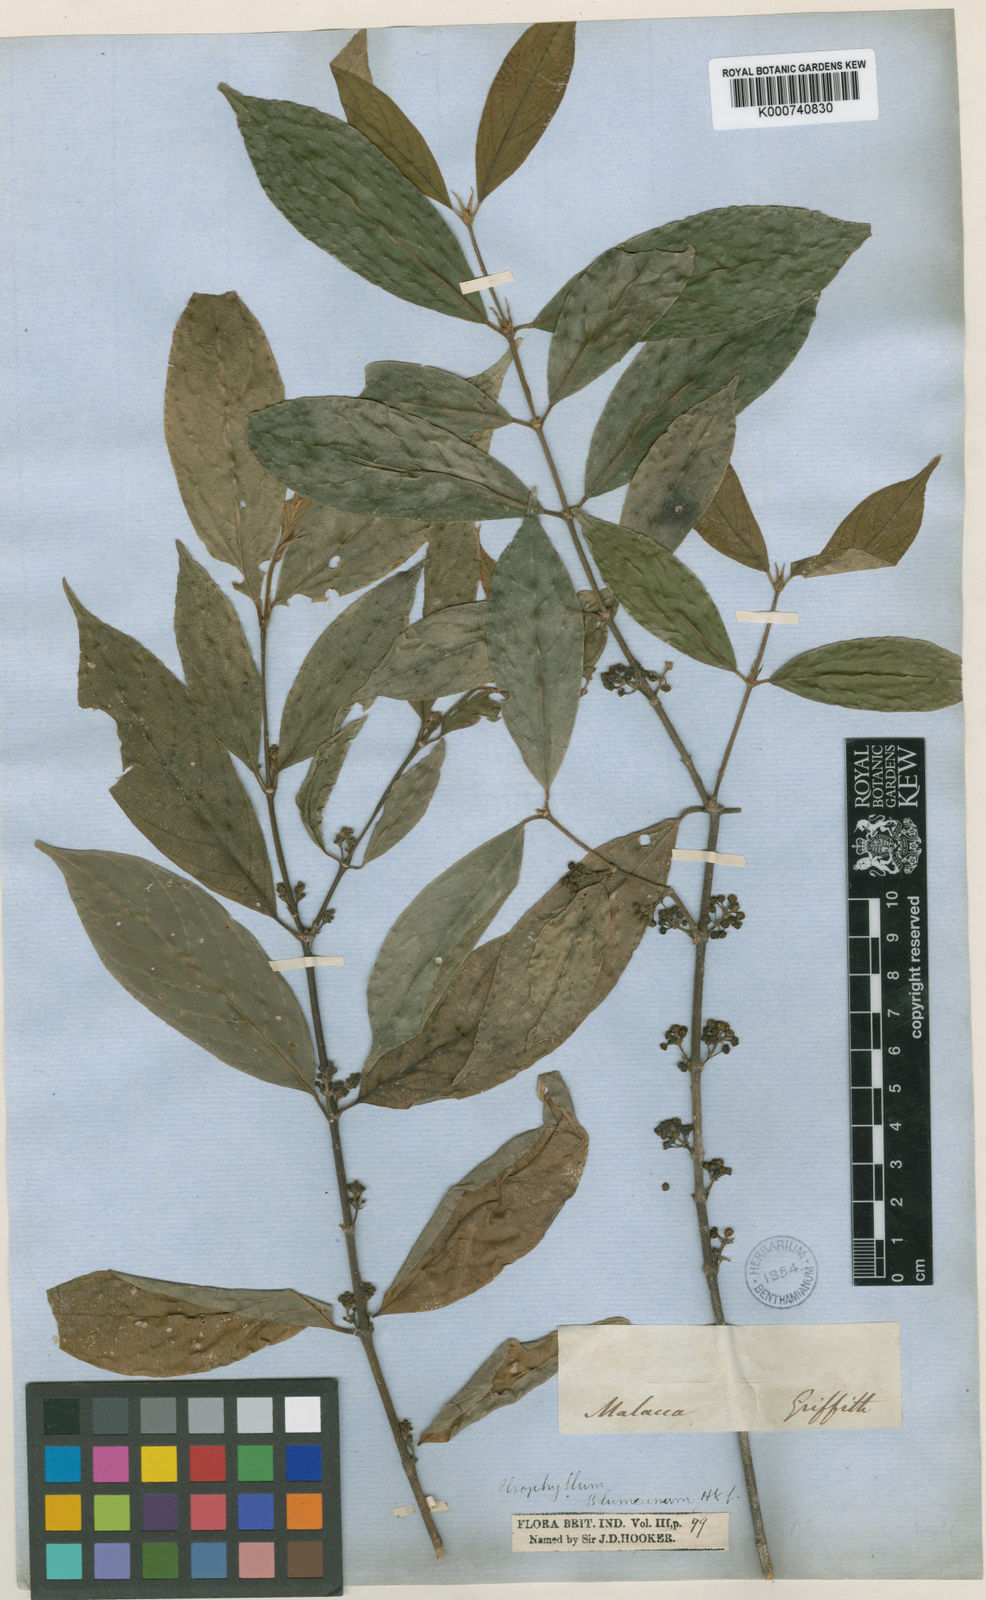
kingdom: Plantae
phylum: Tracheophyta
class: Magnoliopsida
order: Gentianales
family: Rubiaceae
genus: Urophyllum
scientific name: Urophyllum glabrum
